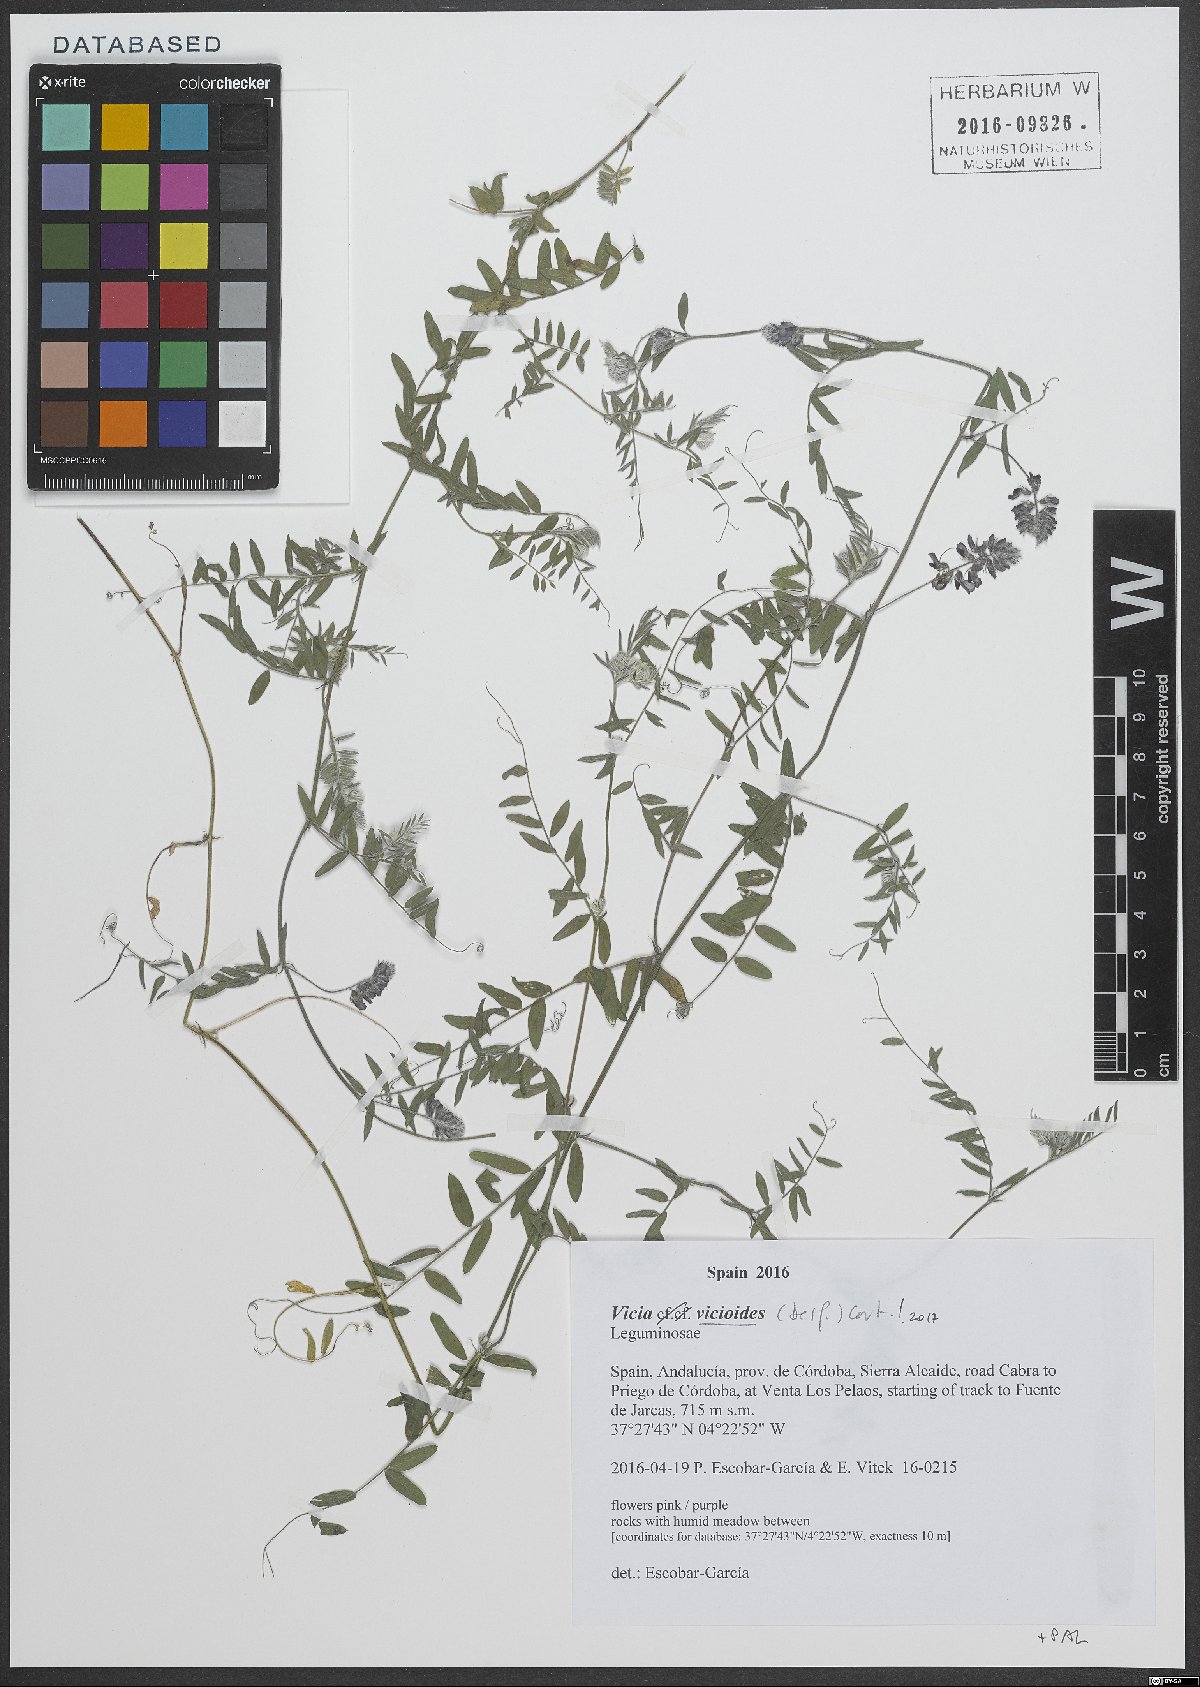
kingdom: Plantae
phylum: Tracheophyta
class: Magnoliopsida
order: Fabales
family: Fabaceae
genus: Vicia
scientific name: Vicia vicioides
